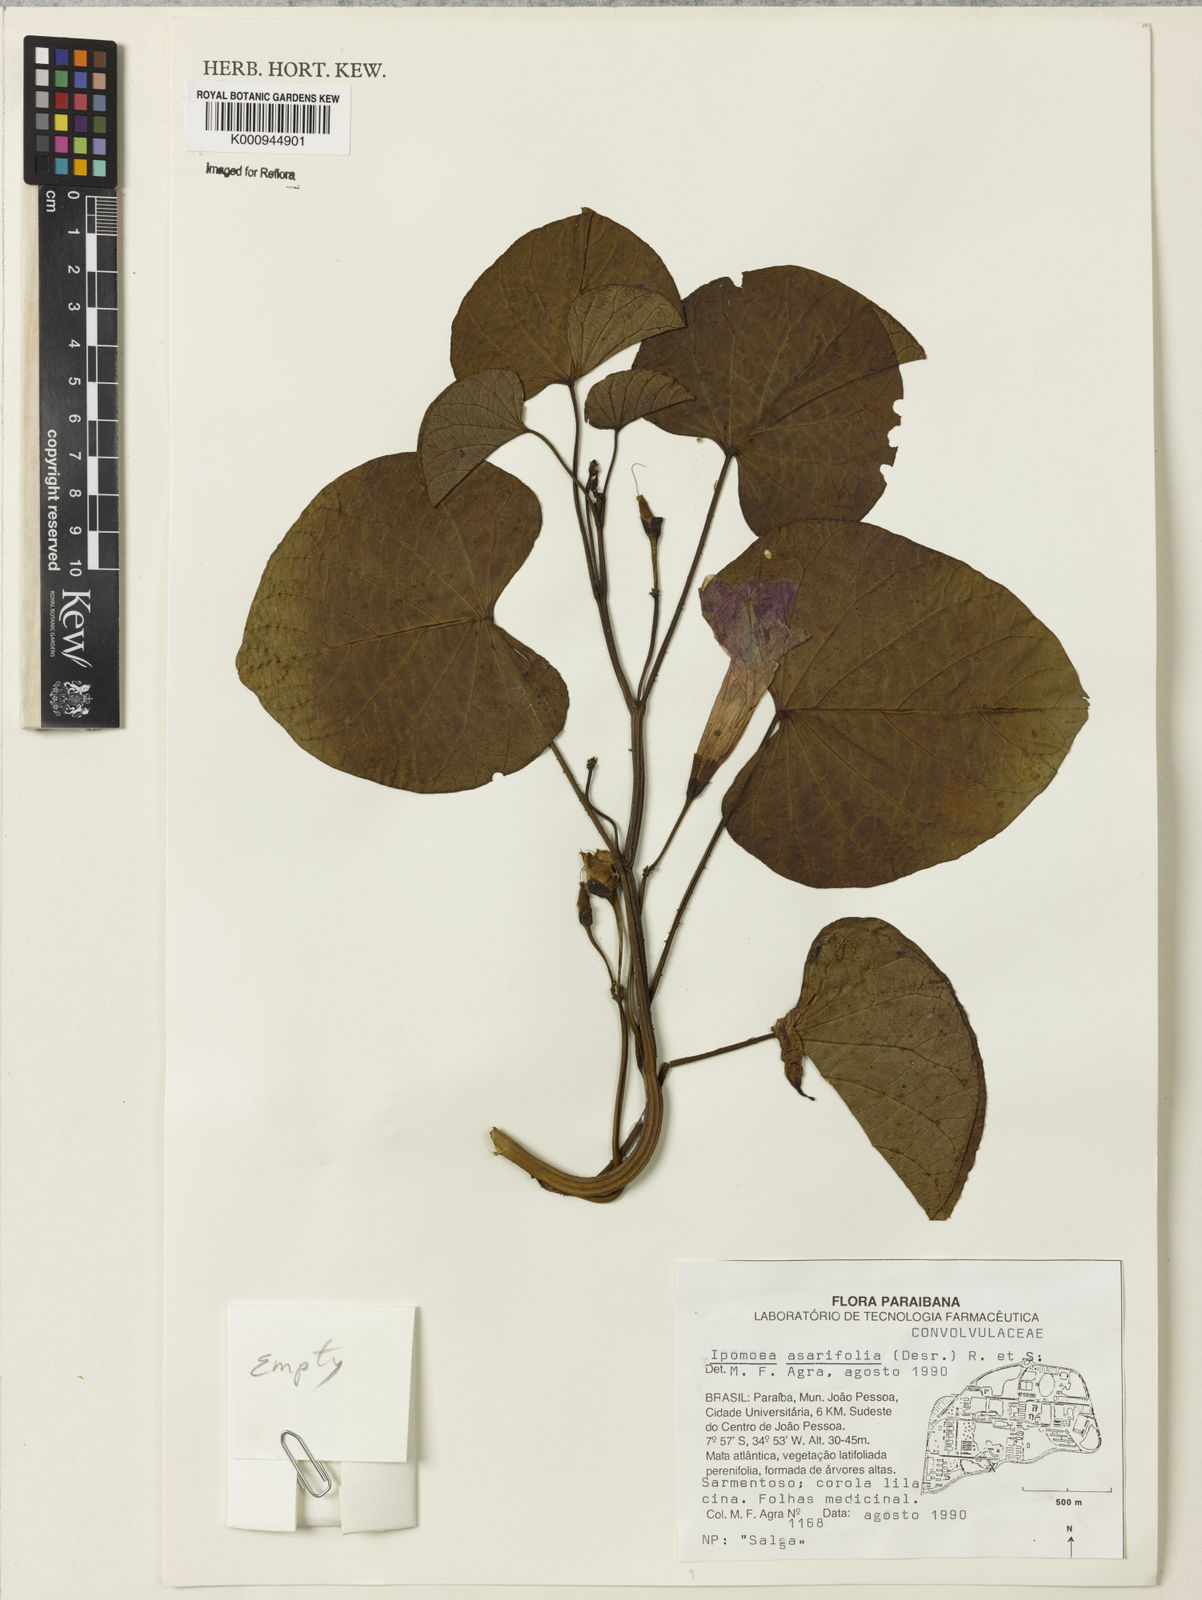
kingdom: Plantae
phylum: Tracheophyta
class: Magnoliopsida
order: Solanales
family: Convolvulaceae
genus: Ipomoea
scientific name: Ipomoea asarifolia
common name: Ginger-leaf morning-glory
